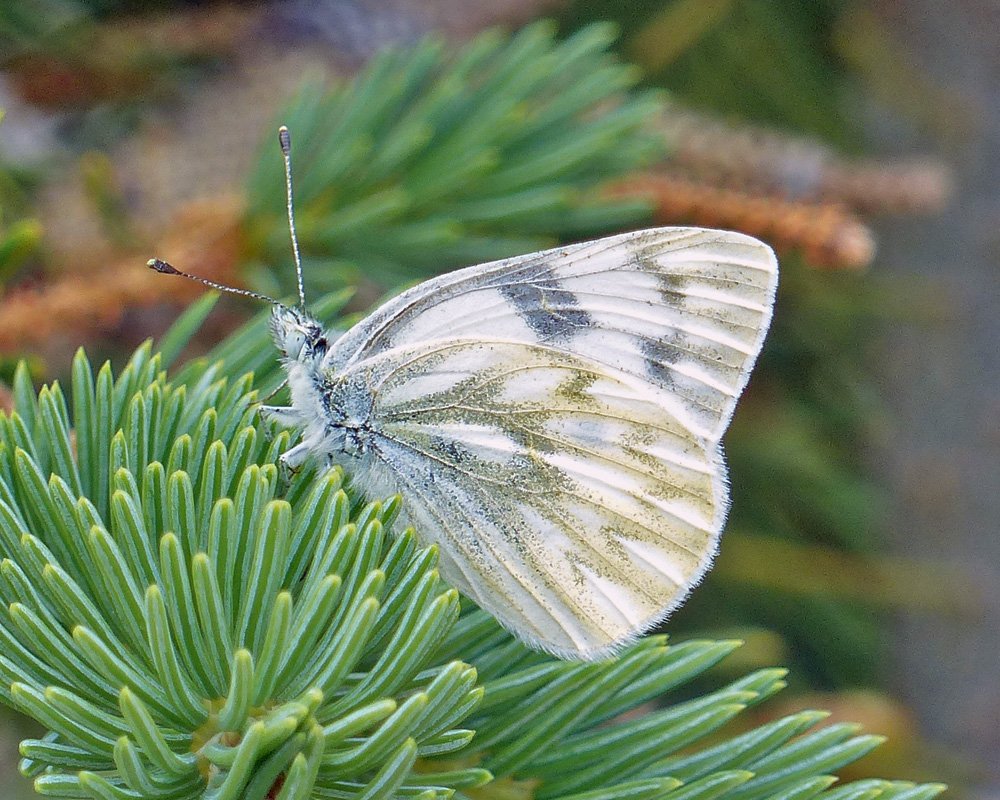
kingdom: Animalia
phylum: Arthropoda
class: Insecta
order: Lepidoptera
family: Pieridae
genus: Pontia
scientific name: Pontia occidentalis
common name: Western White
